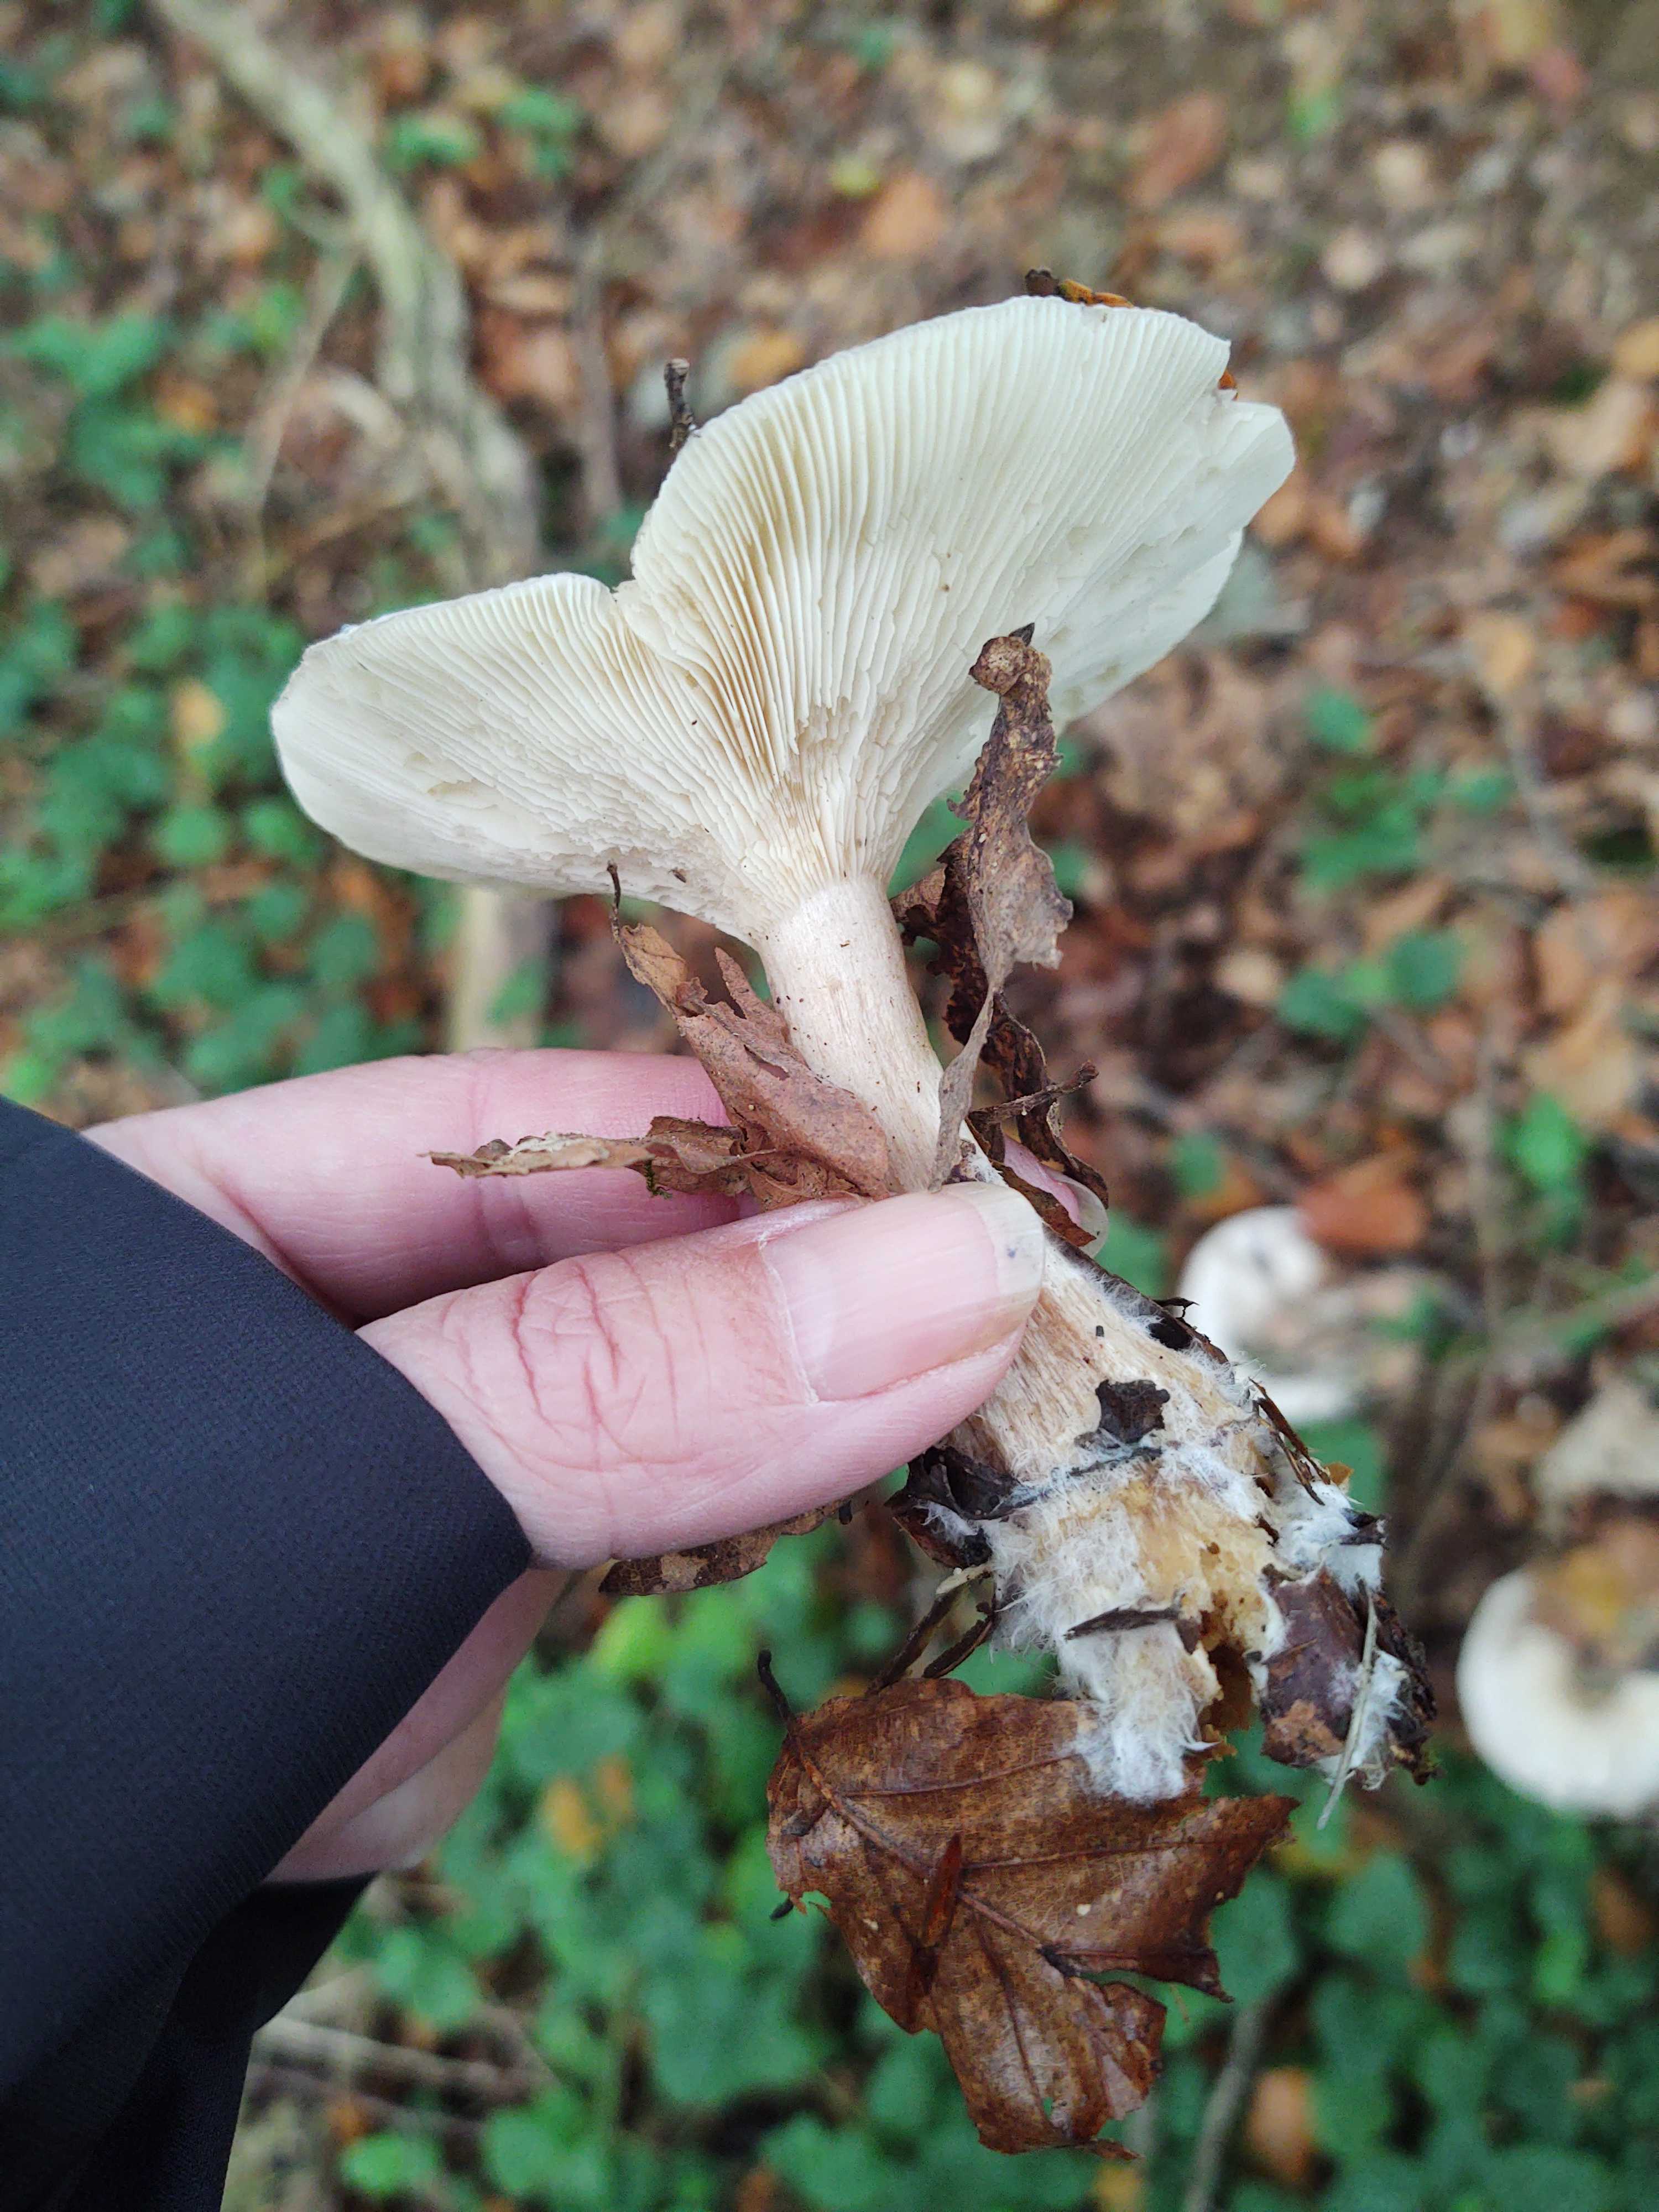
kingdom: Fungi
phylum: Basidiomycota
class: Agaricomycetes
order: Agaricales
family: Tricholomataceae
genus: Clitocybe
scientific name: Clitocybe nebularis
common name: tåge-tragthat
